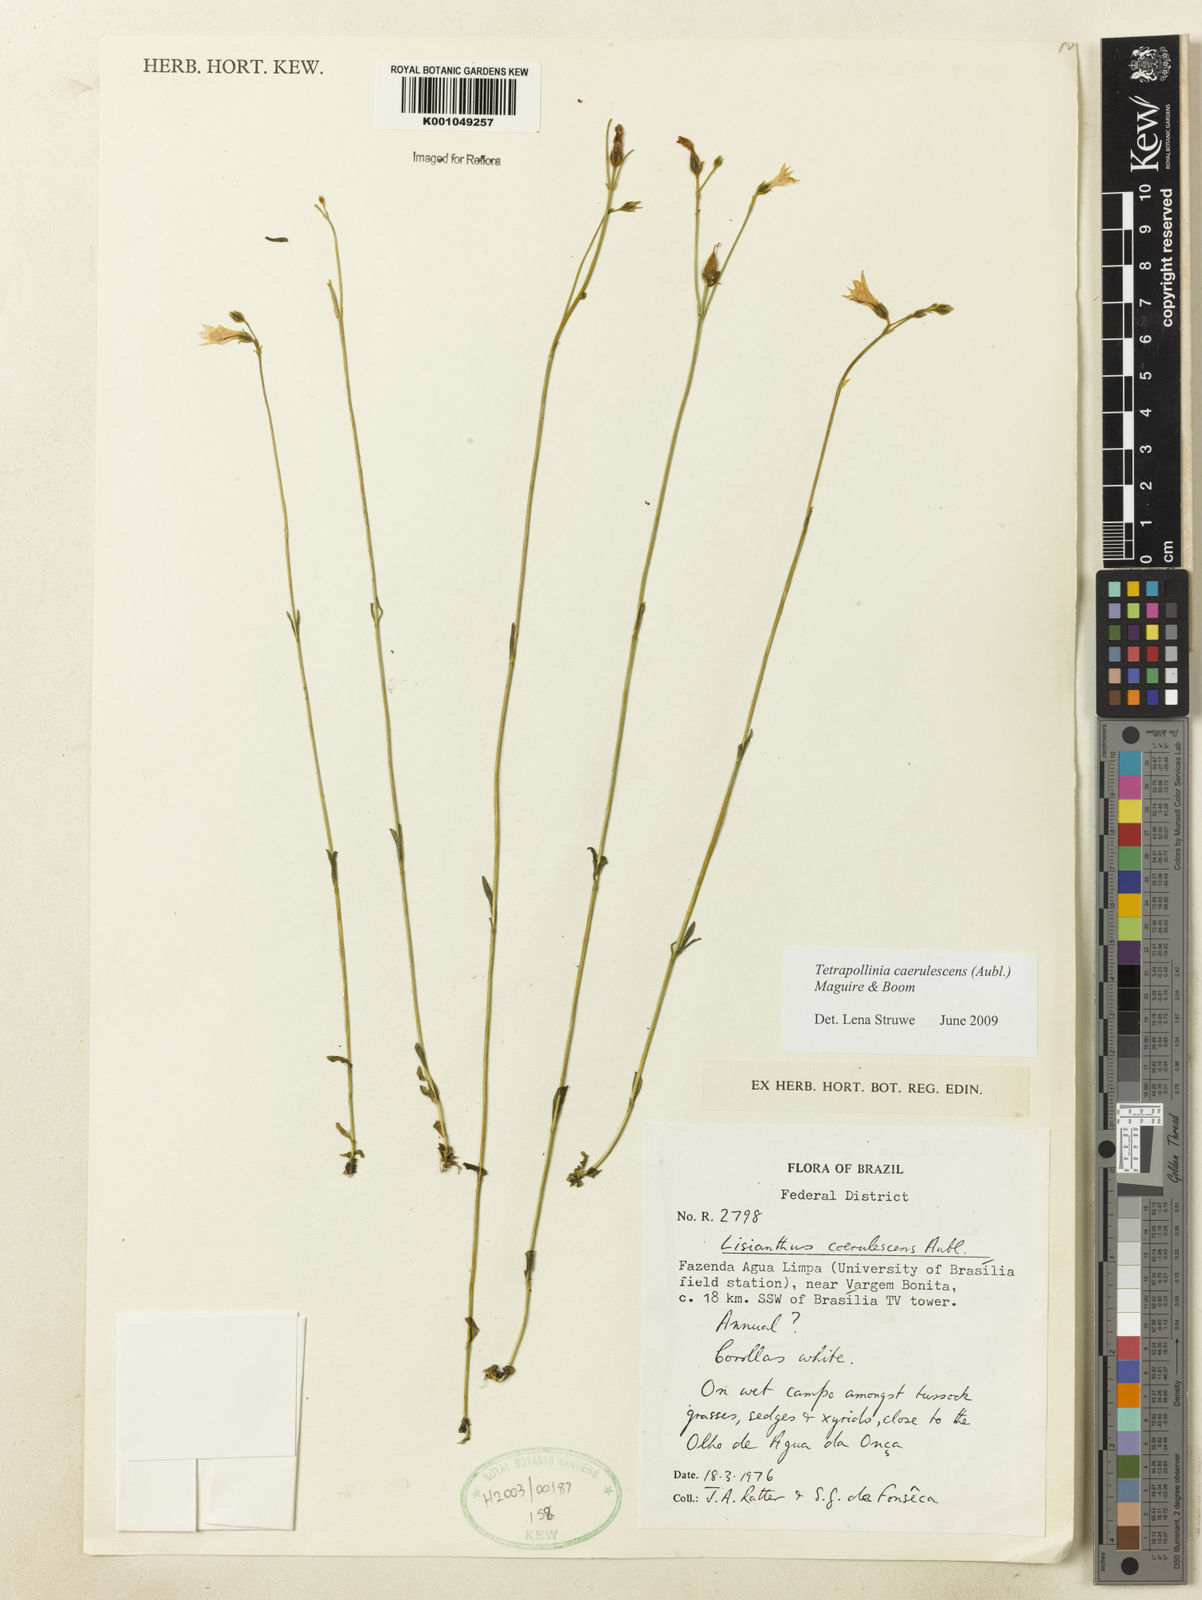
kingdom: Plantae
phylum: Tracheophyta
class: Magnoliopsida
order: Gentianales
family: Gentianaceae
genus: Tetrapollinia
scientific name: Tetrapollinia caerulescens
